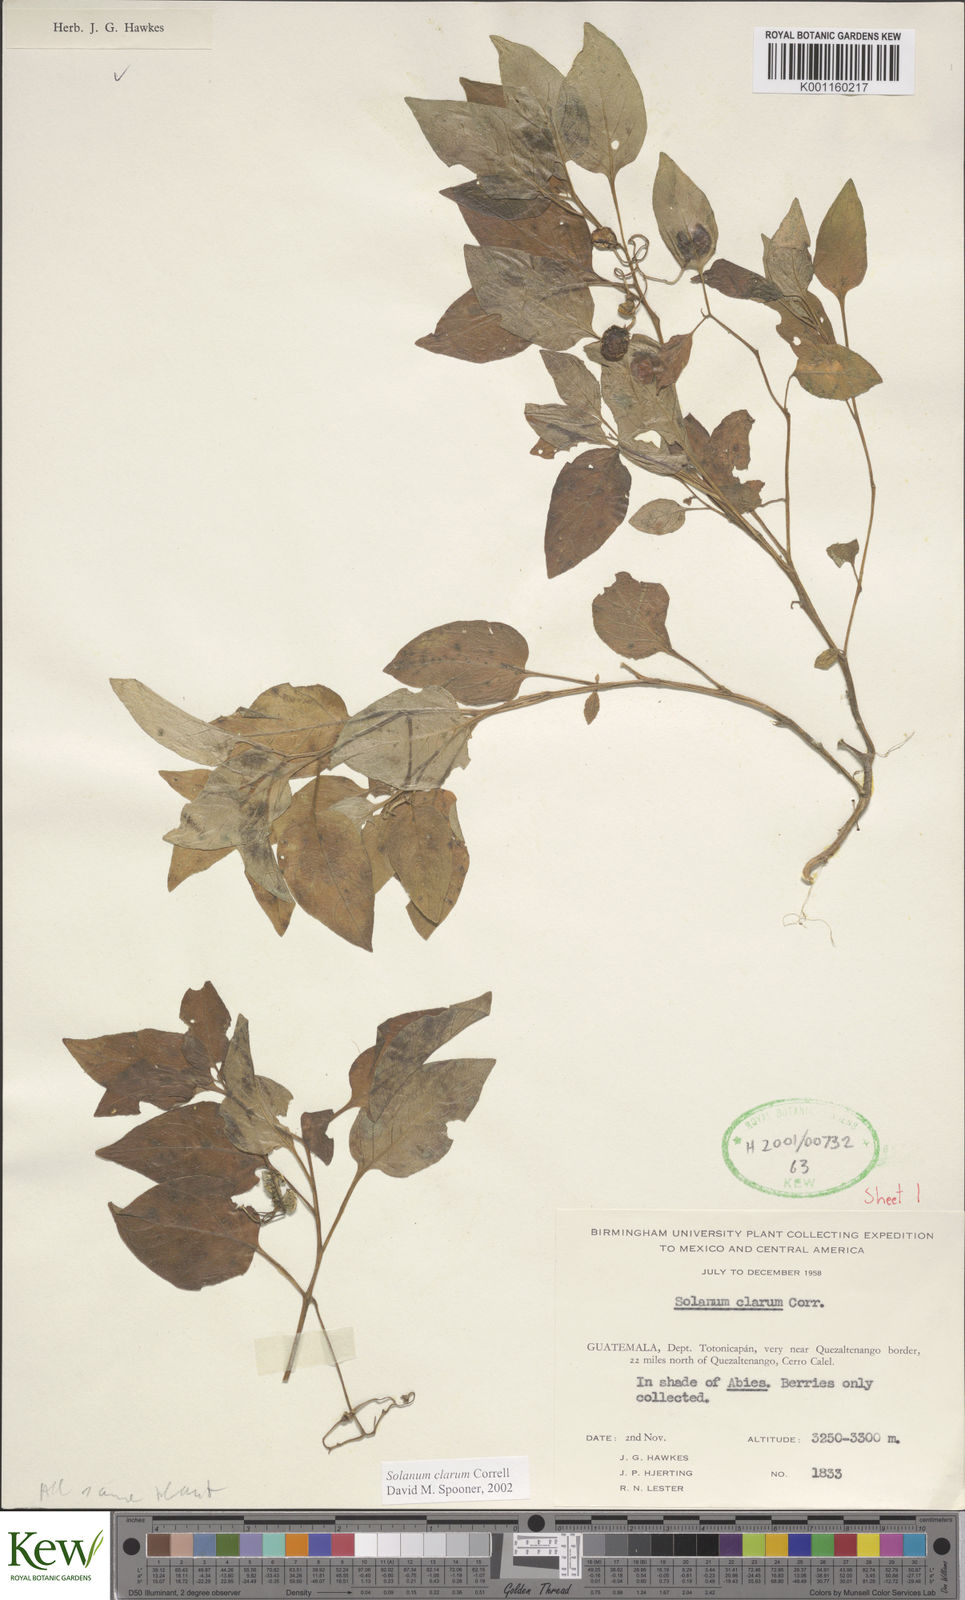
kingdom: Plantae
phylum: Tracheophyta
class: Magnoliopsida
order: Solanales
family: Solanaceae
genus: Solanum
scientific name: Solanum clarum
